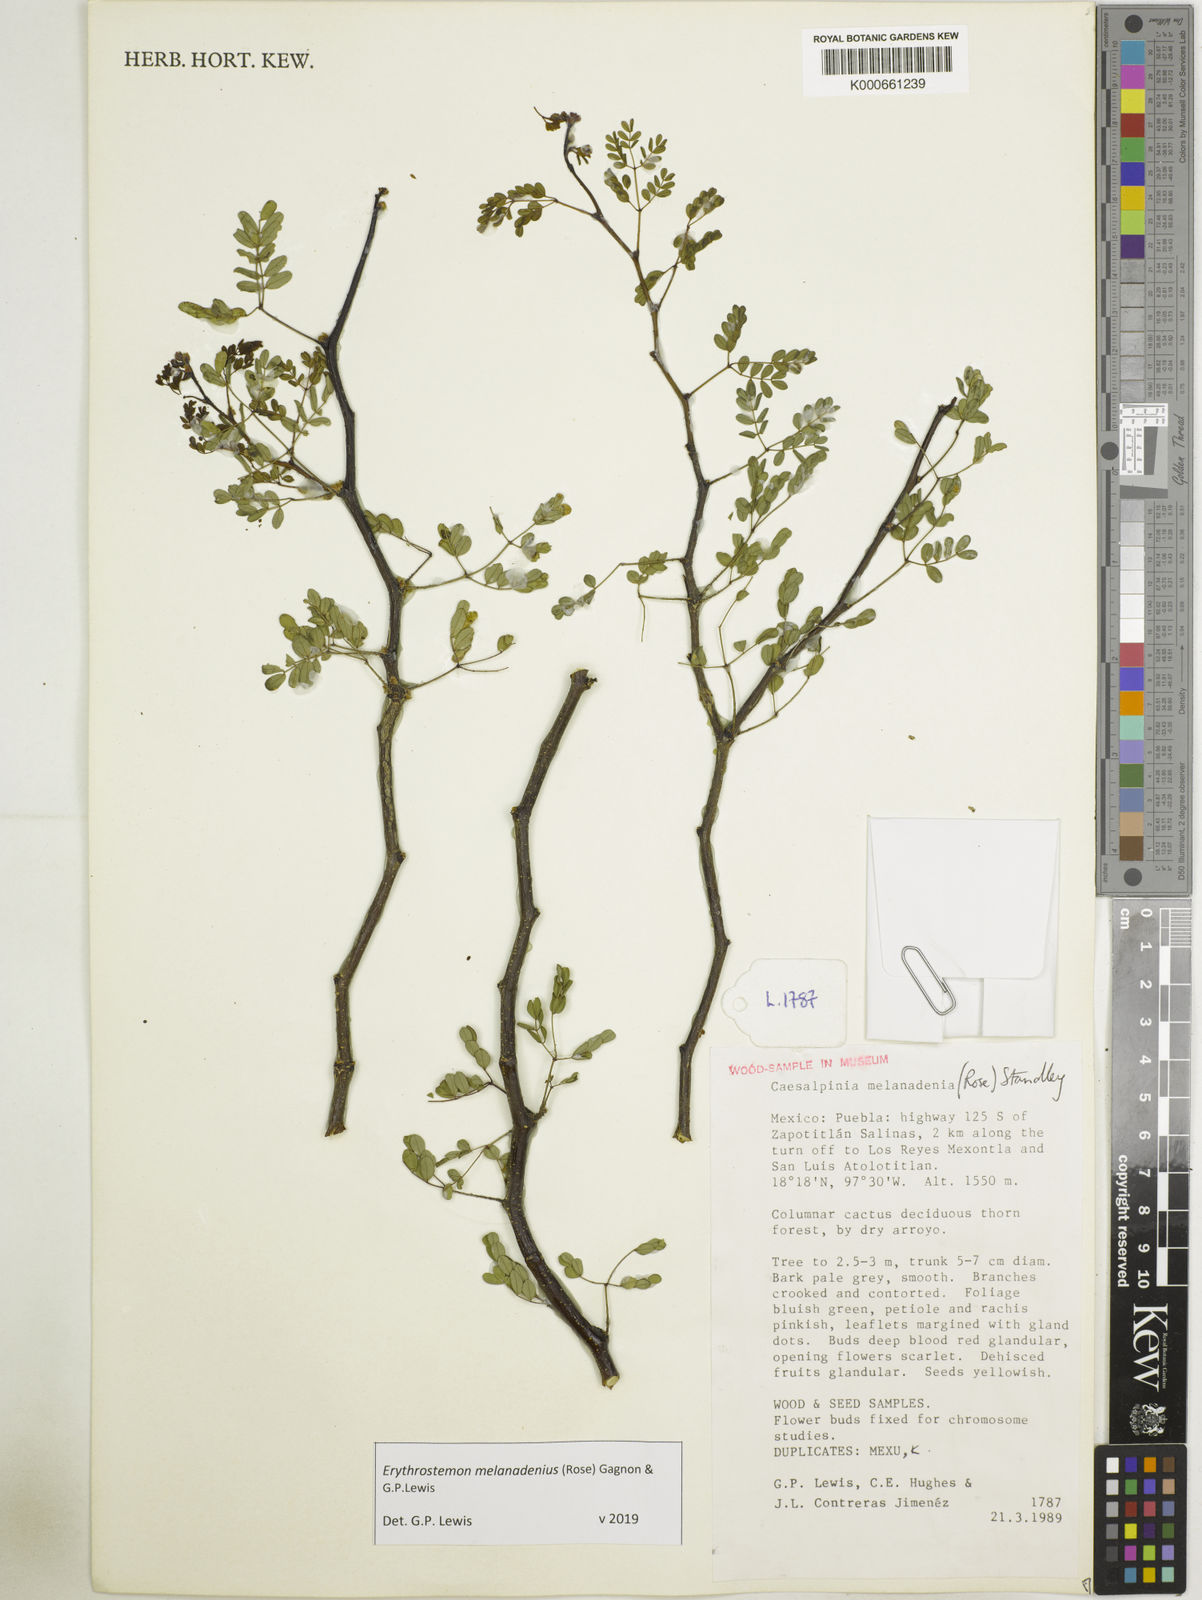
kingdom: Plantae
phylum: Tracheophyta
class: Magnoliopsida
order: Fabales
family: Fabaceae
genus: Erythrostemon
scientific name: Erythrostemon melanadenius
